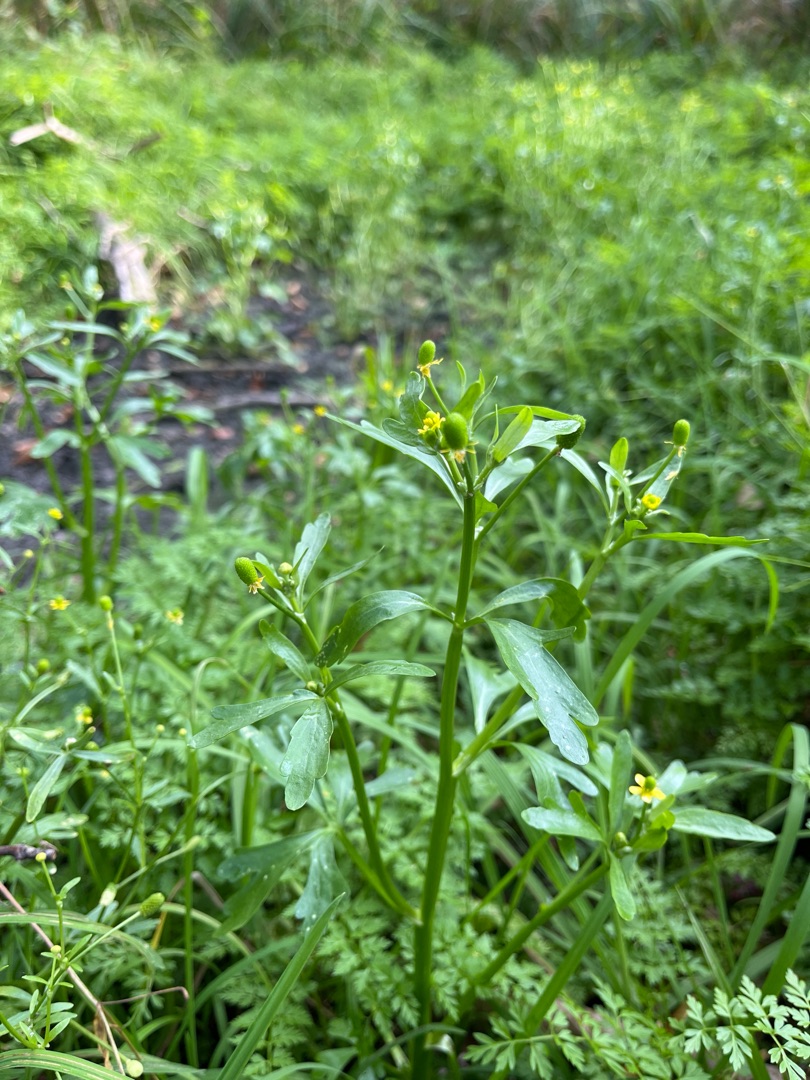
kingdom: Plantae
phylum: Tracheophyta
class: Magnoliopsida
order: Ranunculales
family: Ranunculaceae
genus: Ranunculus
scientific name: Ranunculus sceleratus
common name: Tigger-ranunkel
